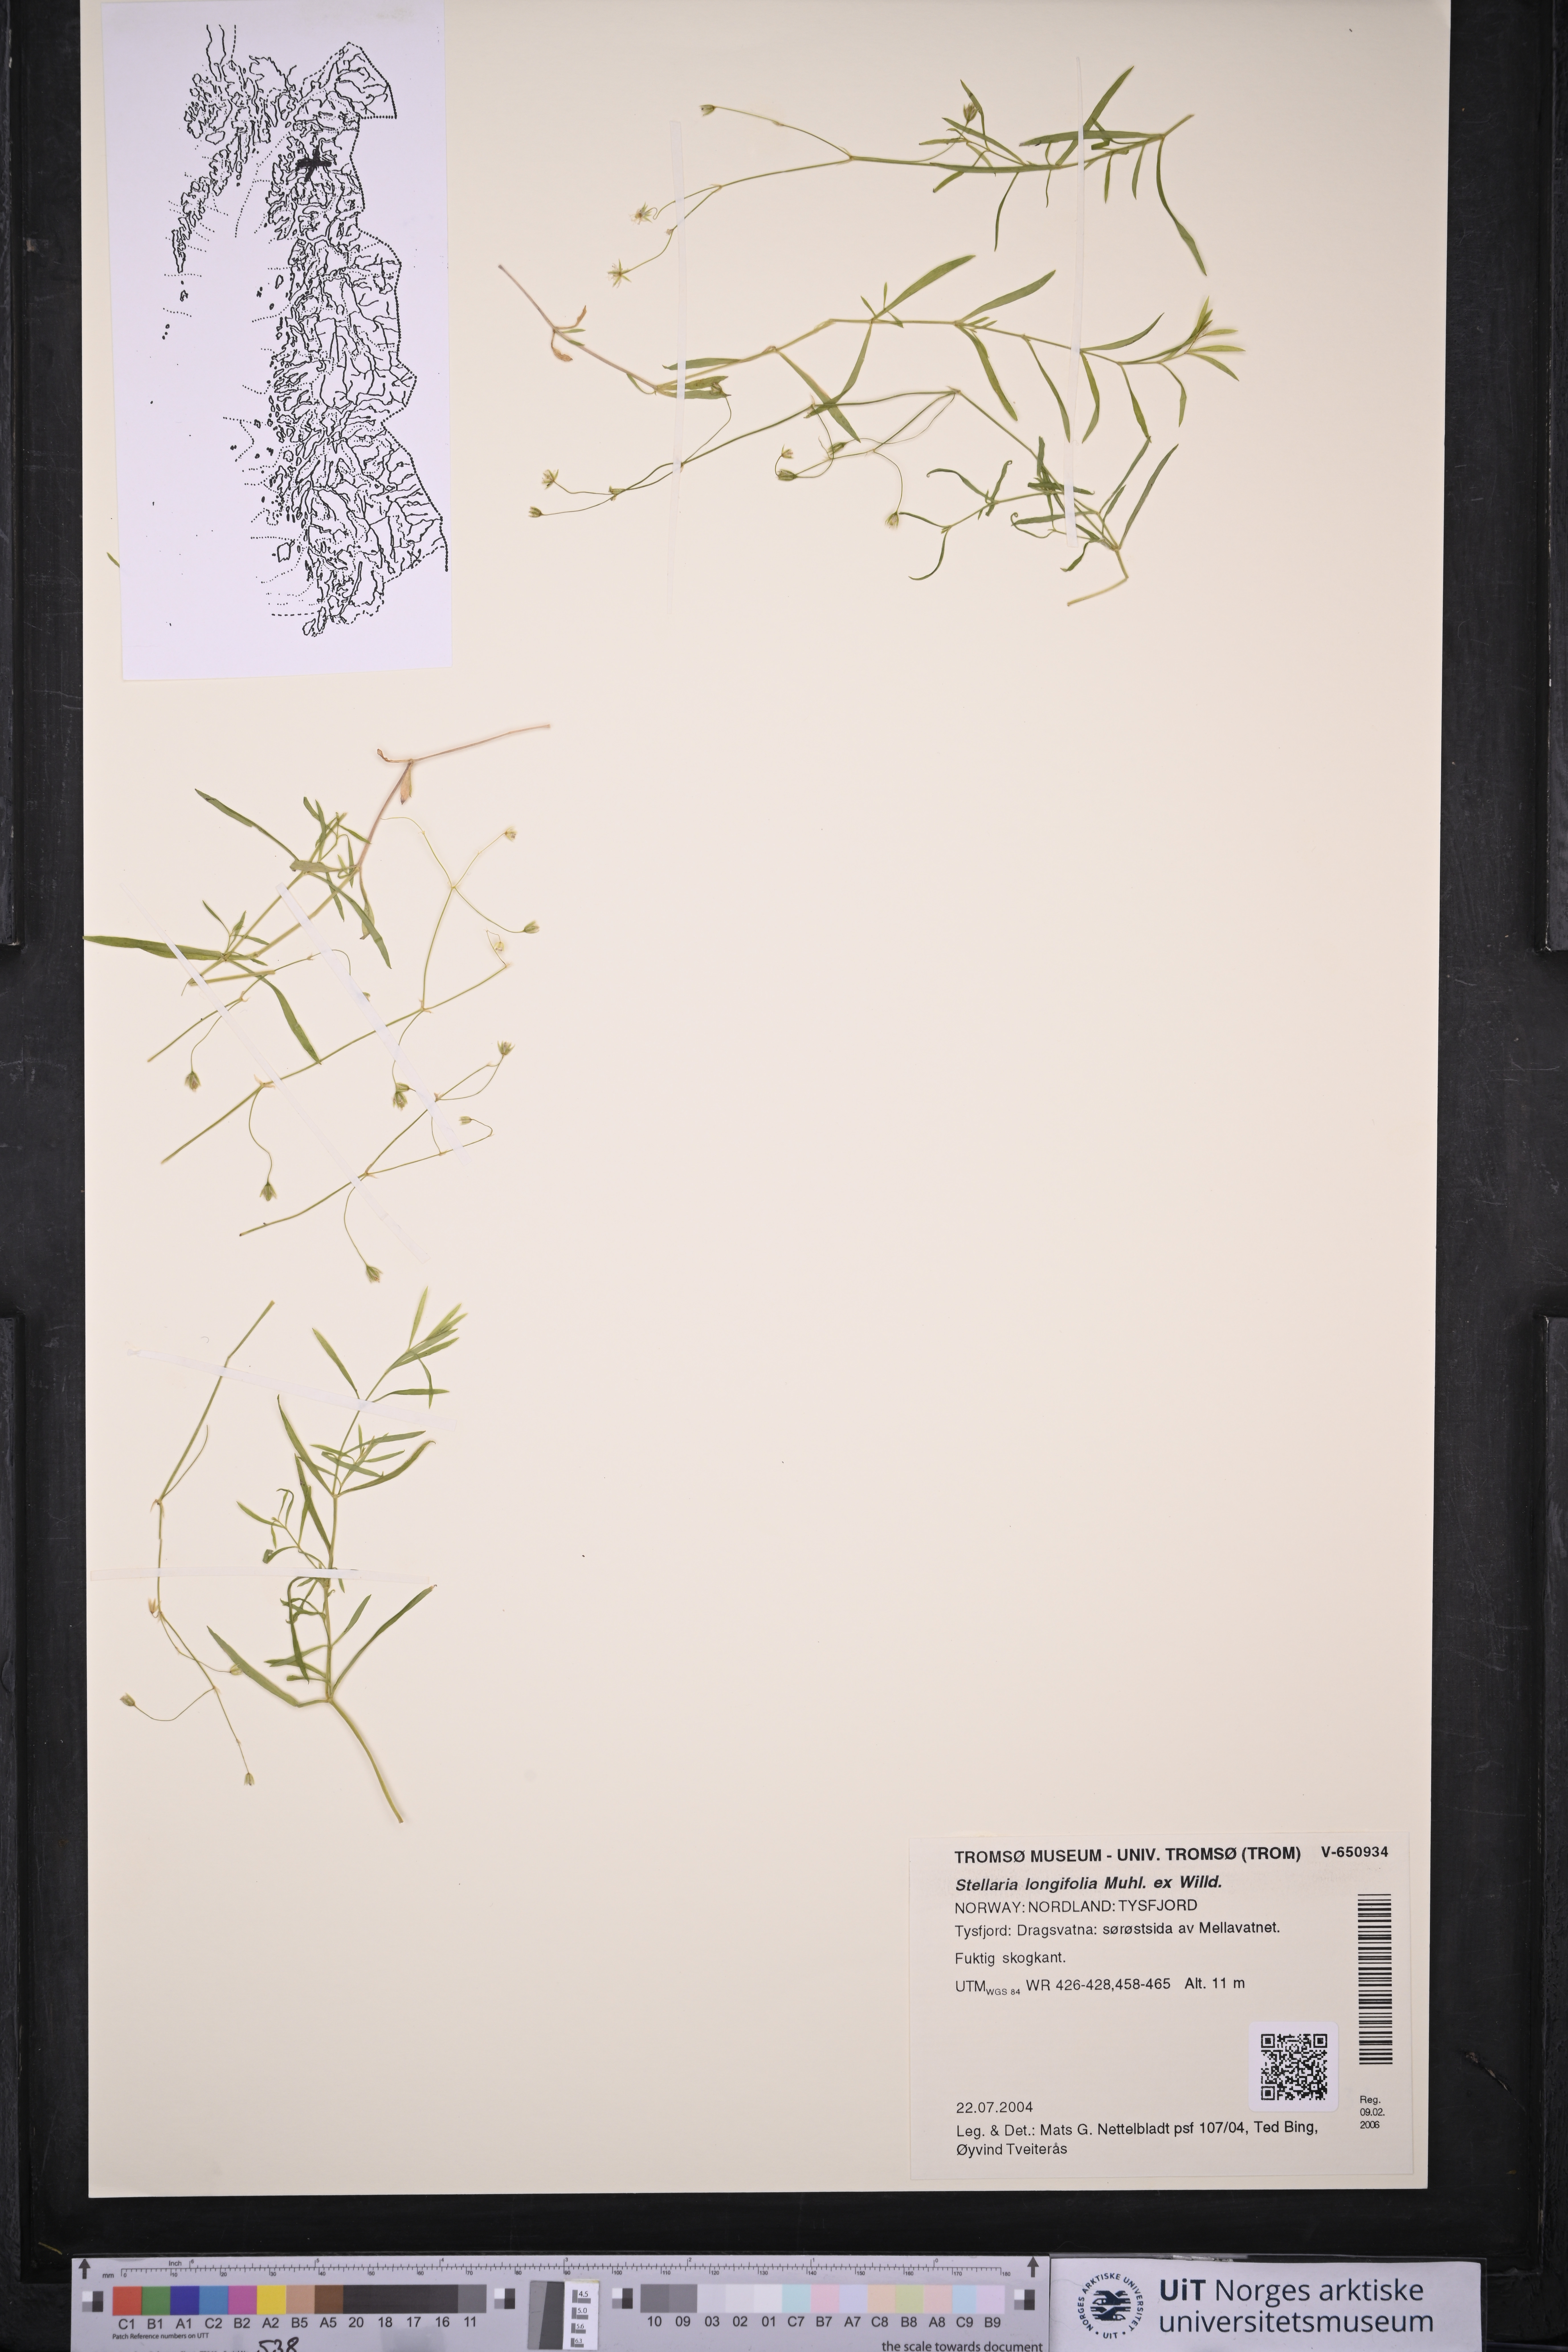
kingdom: Plantae
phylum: Tracheophyta
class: Magnoliopsida
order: Caryophyllales
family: Caryophyllaceae
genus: Stellaria
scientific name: Stellaria longifolia
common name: Long-leaved chickweed
